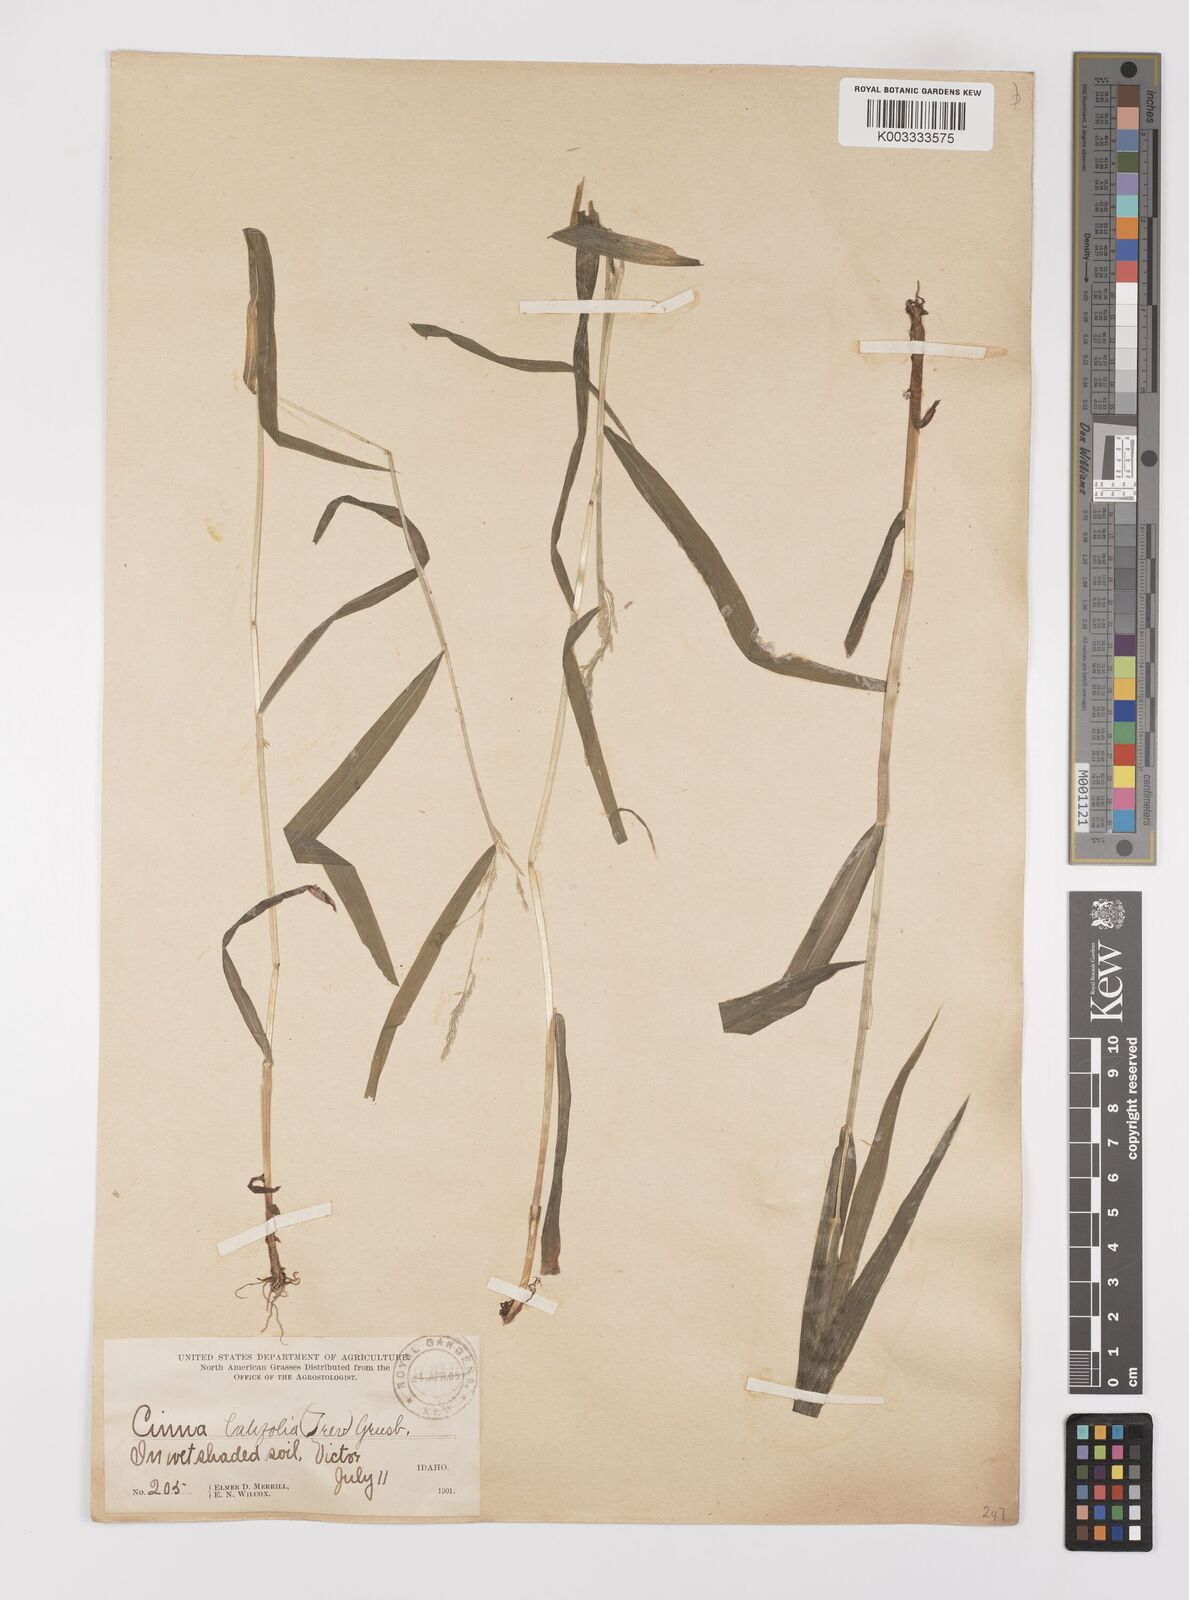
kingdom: Plantae
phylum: Tracheophyta
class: Liliopsida
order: Poales
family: Poaceae
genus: Cinna
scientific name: Cinna latifolia
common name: Drooping woodreed
